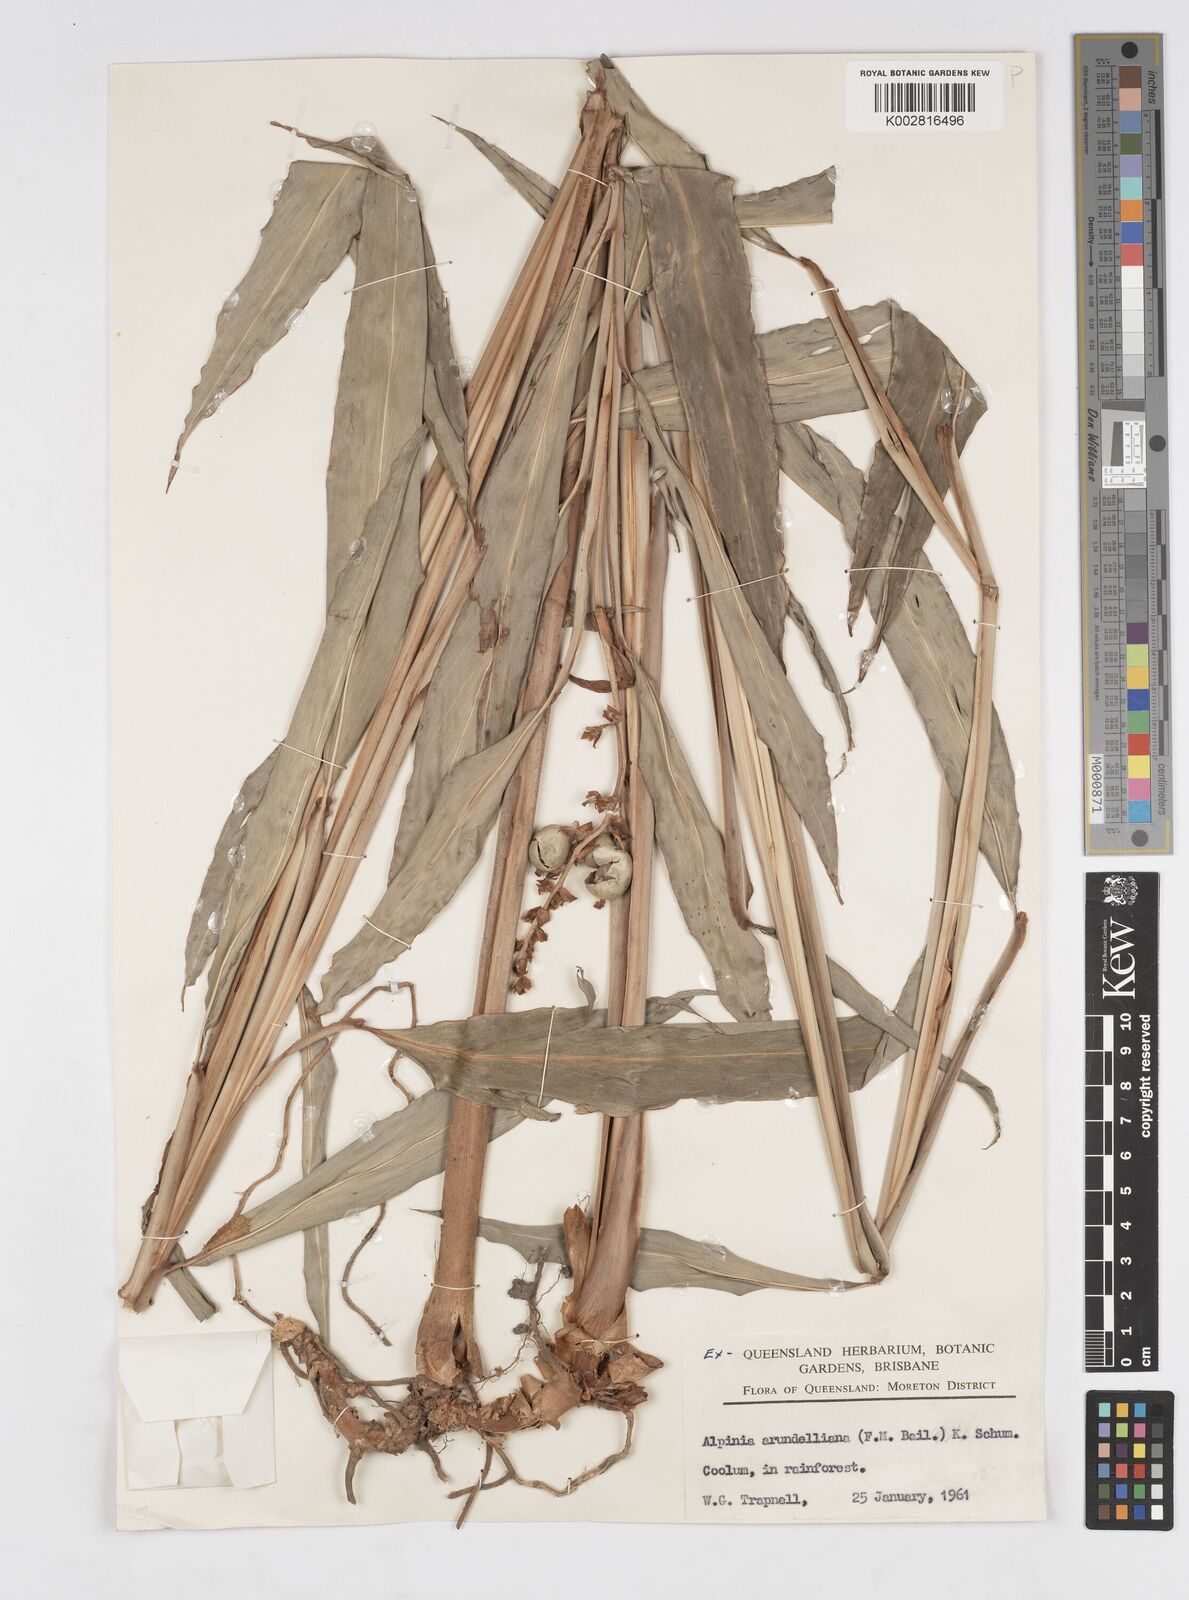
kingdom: Plantae
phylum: Tracheophyta
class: Liliopsida
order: Zingiberales
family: Zingiberaceae
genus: Alpinia
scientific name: Alpinia arundelliana
